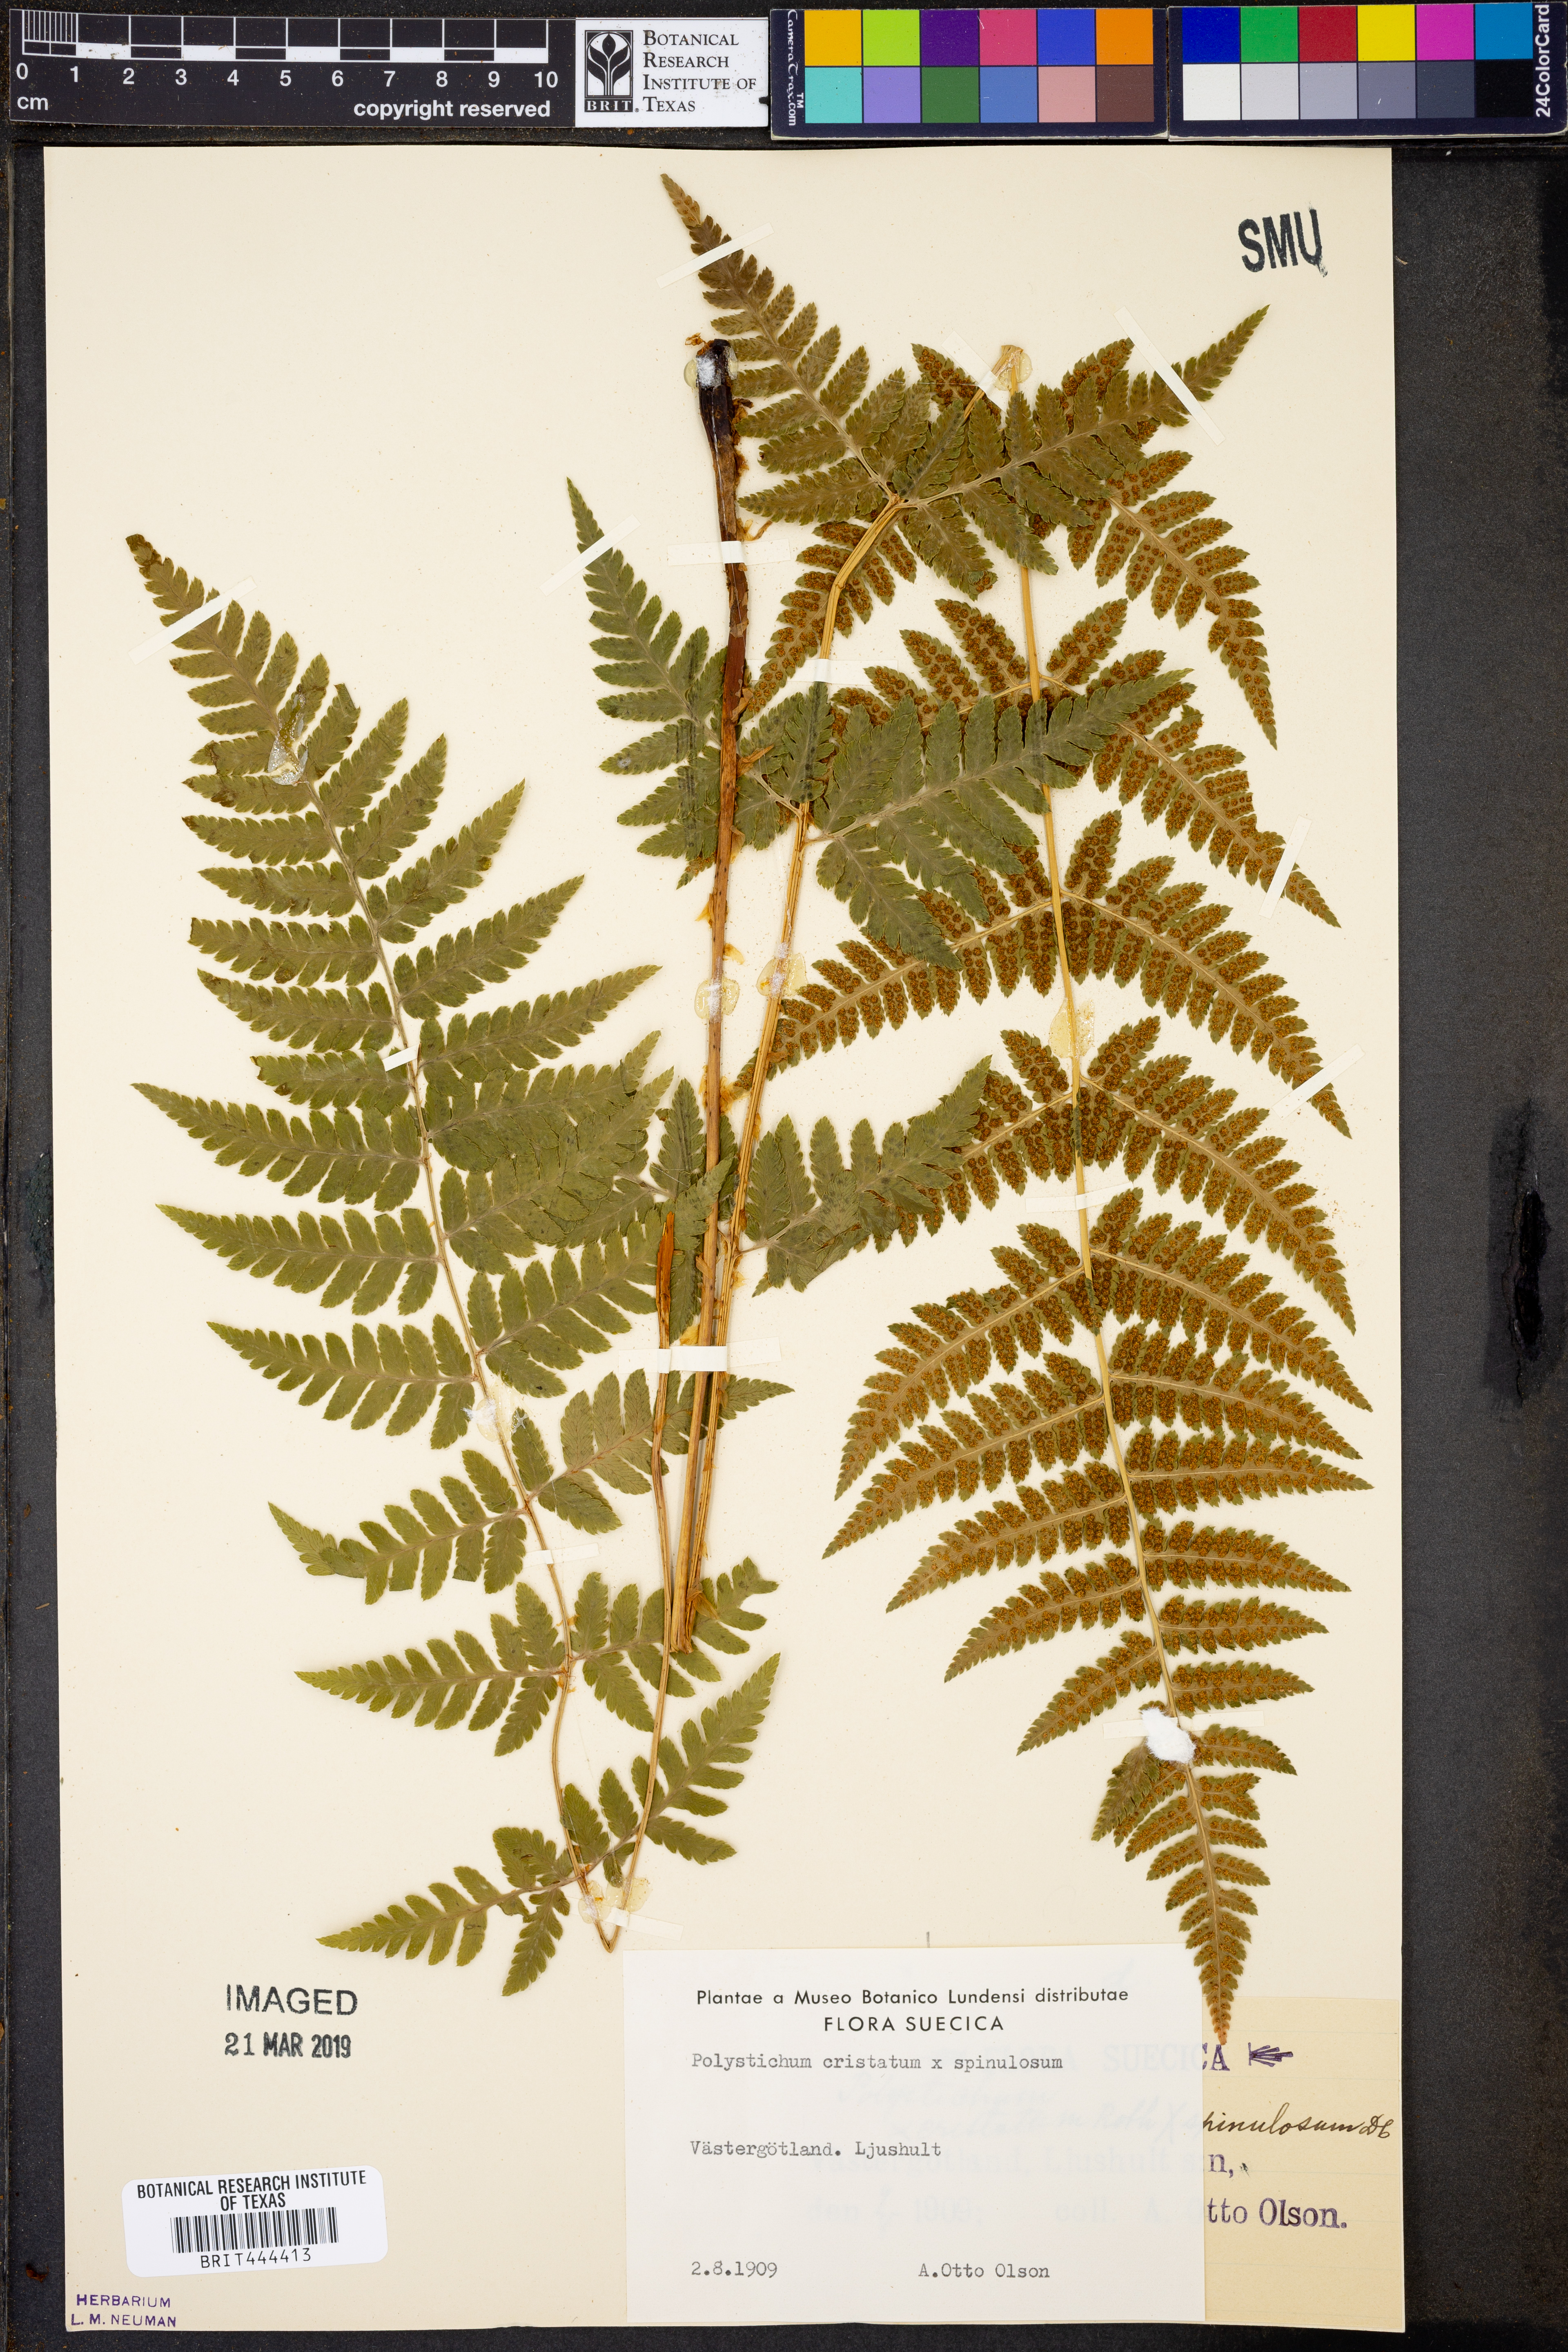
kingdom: Plantae
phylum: Tracheophyta
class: Polypodiopsida
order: Polypodiales
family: Dryopteridaceae
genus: Dryopteris
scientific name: Dryopteris carthusiana
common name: Narrow buckler-fern
